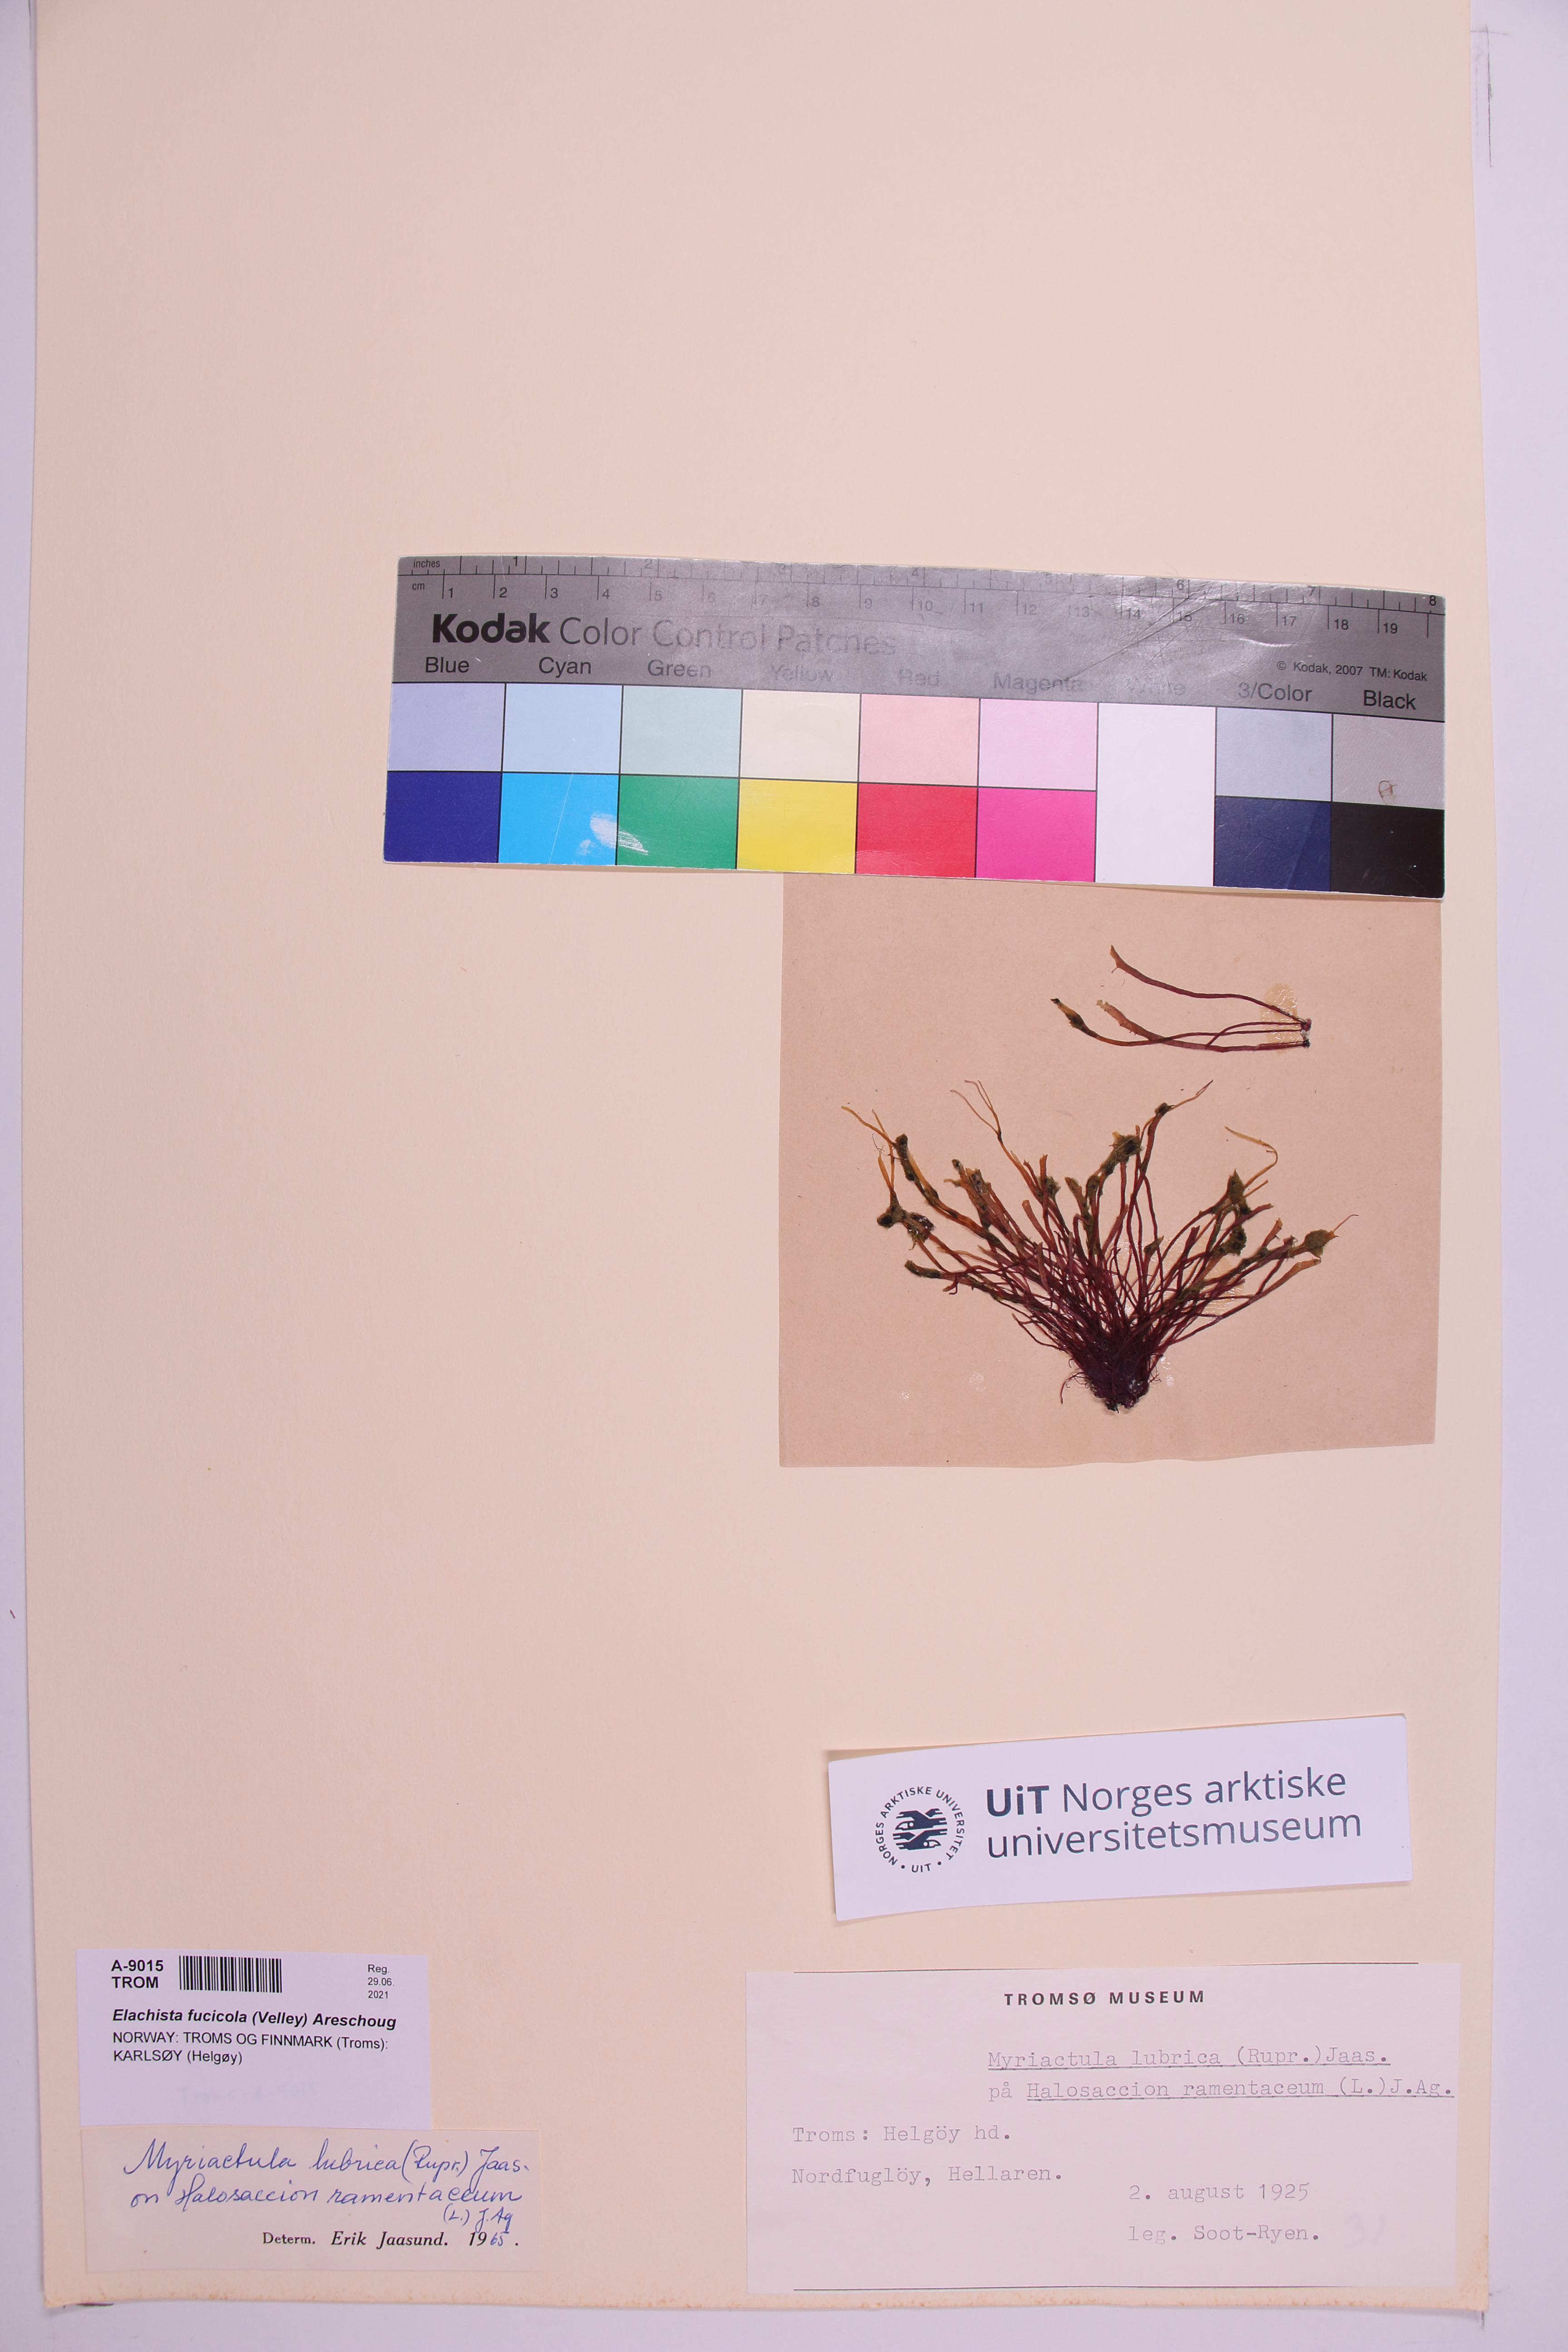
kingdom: Chromista
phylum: Ochrophyta
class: Phaeophyceae
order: Ectocarpales
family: Chordariaceae
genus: Elachista
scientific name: Elachista fucicola
